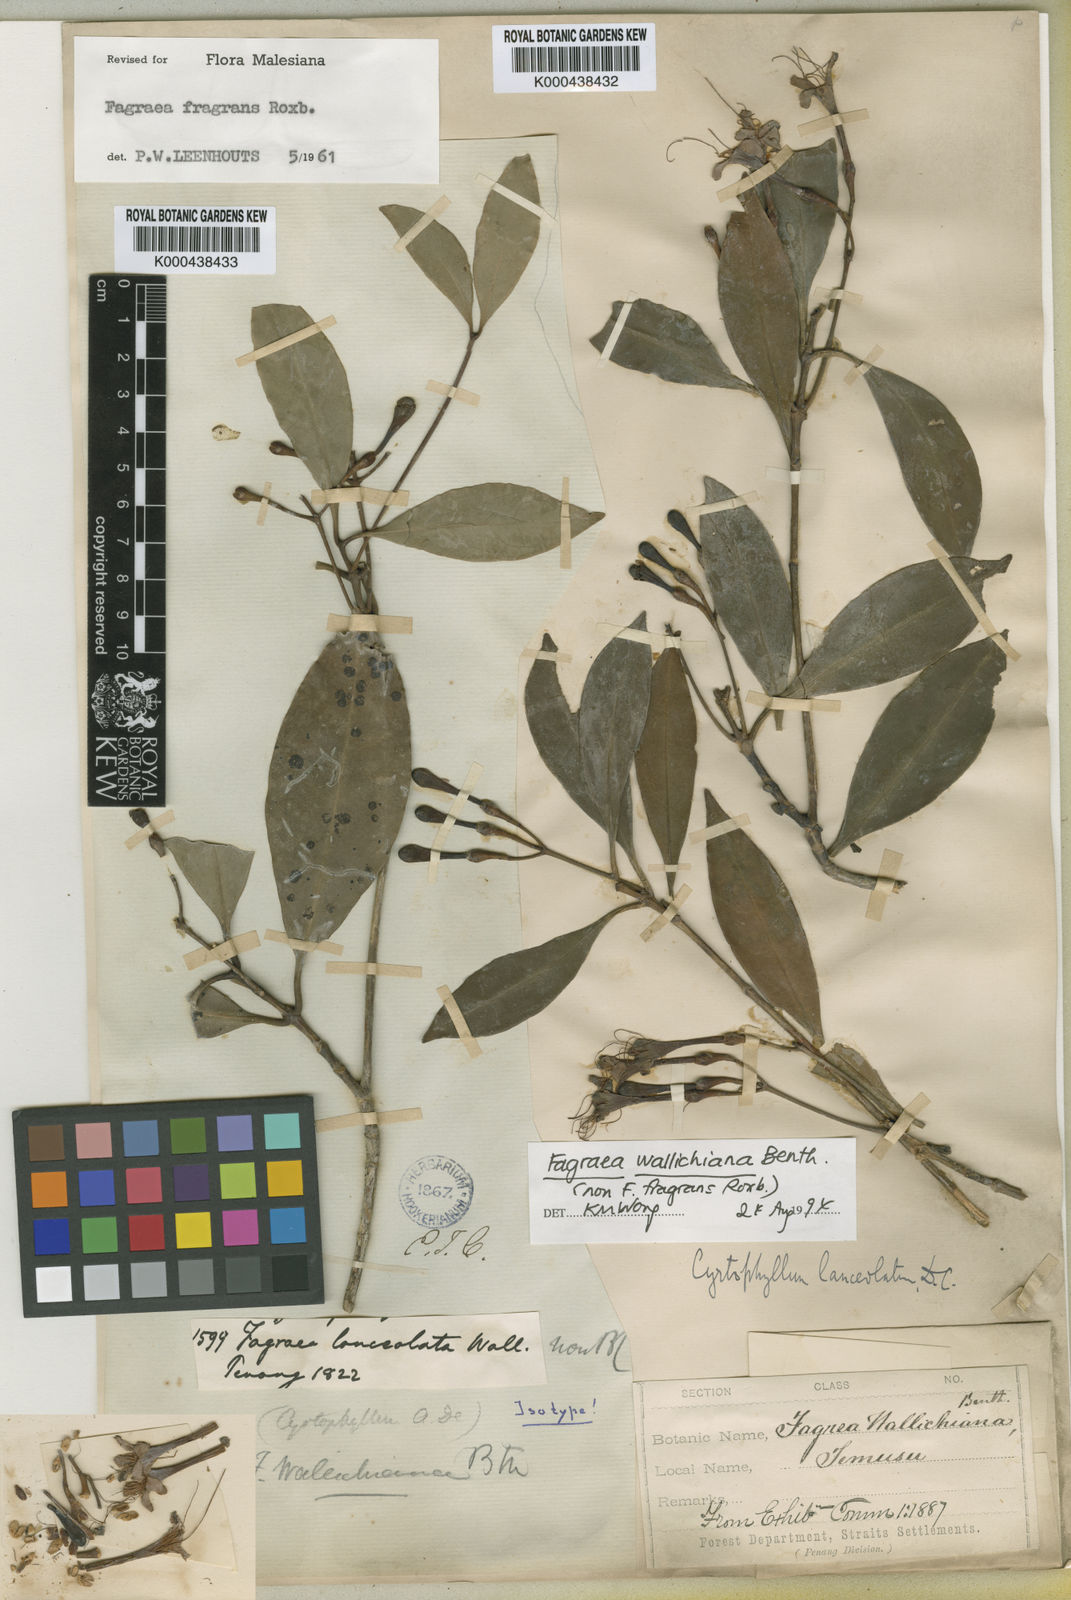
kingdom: Plantae
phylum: Tracheophyta
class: Magnoliopsida
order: Gentianales
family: Gentianaceae
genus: Cyrtophyllum
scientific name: Cyrtophyllum lanceolatum
